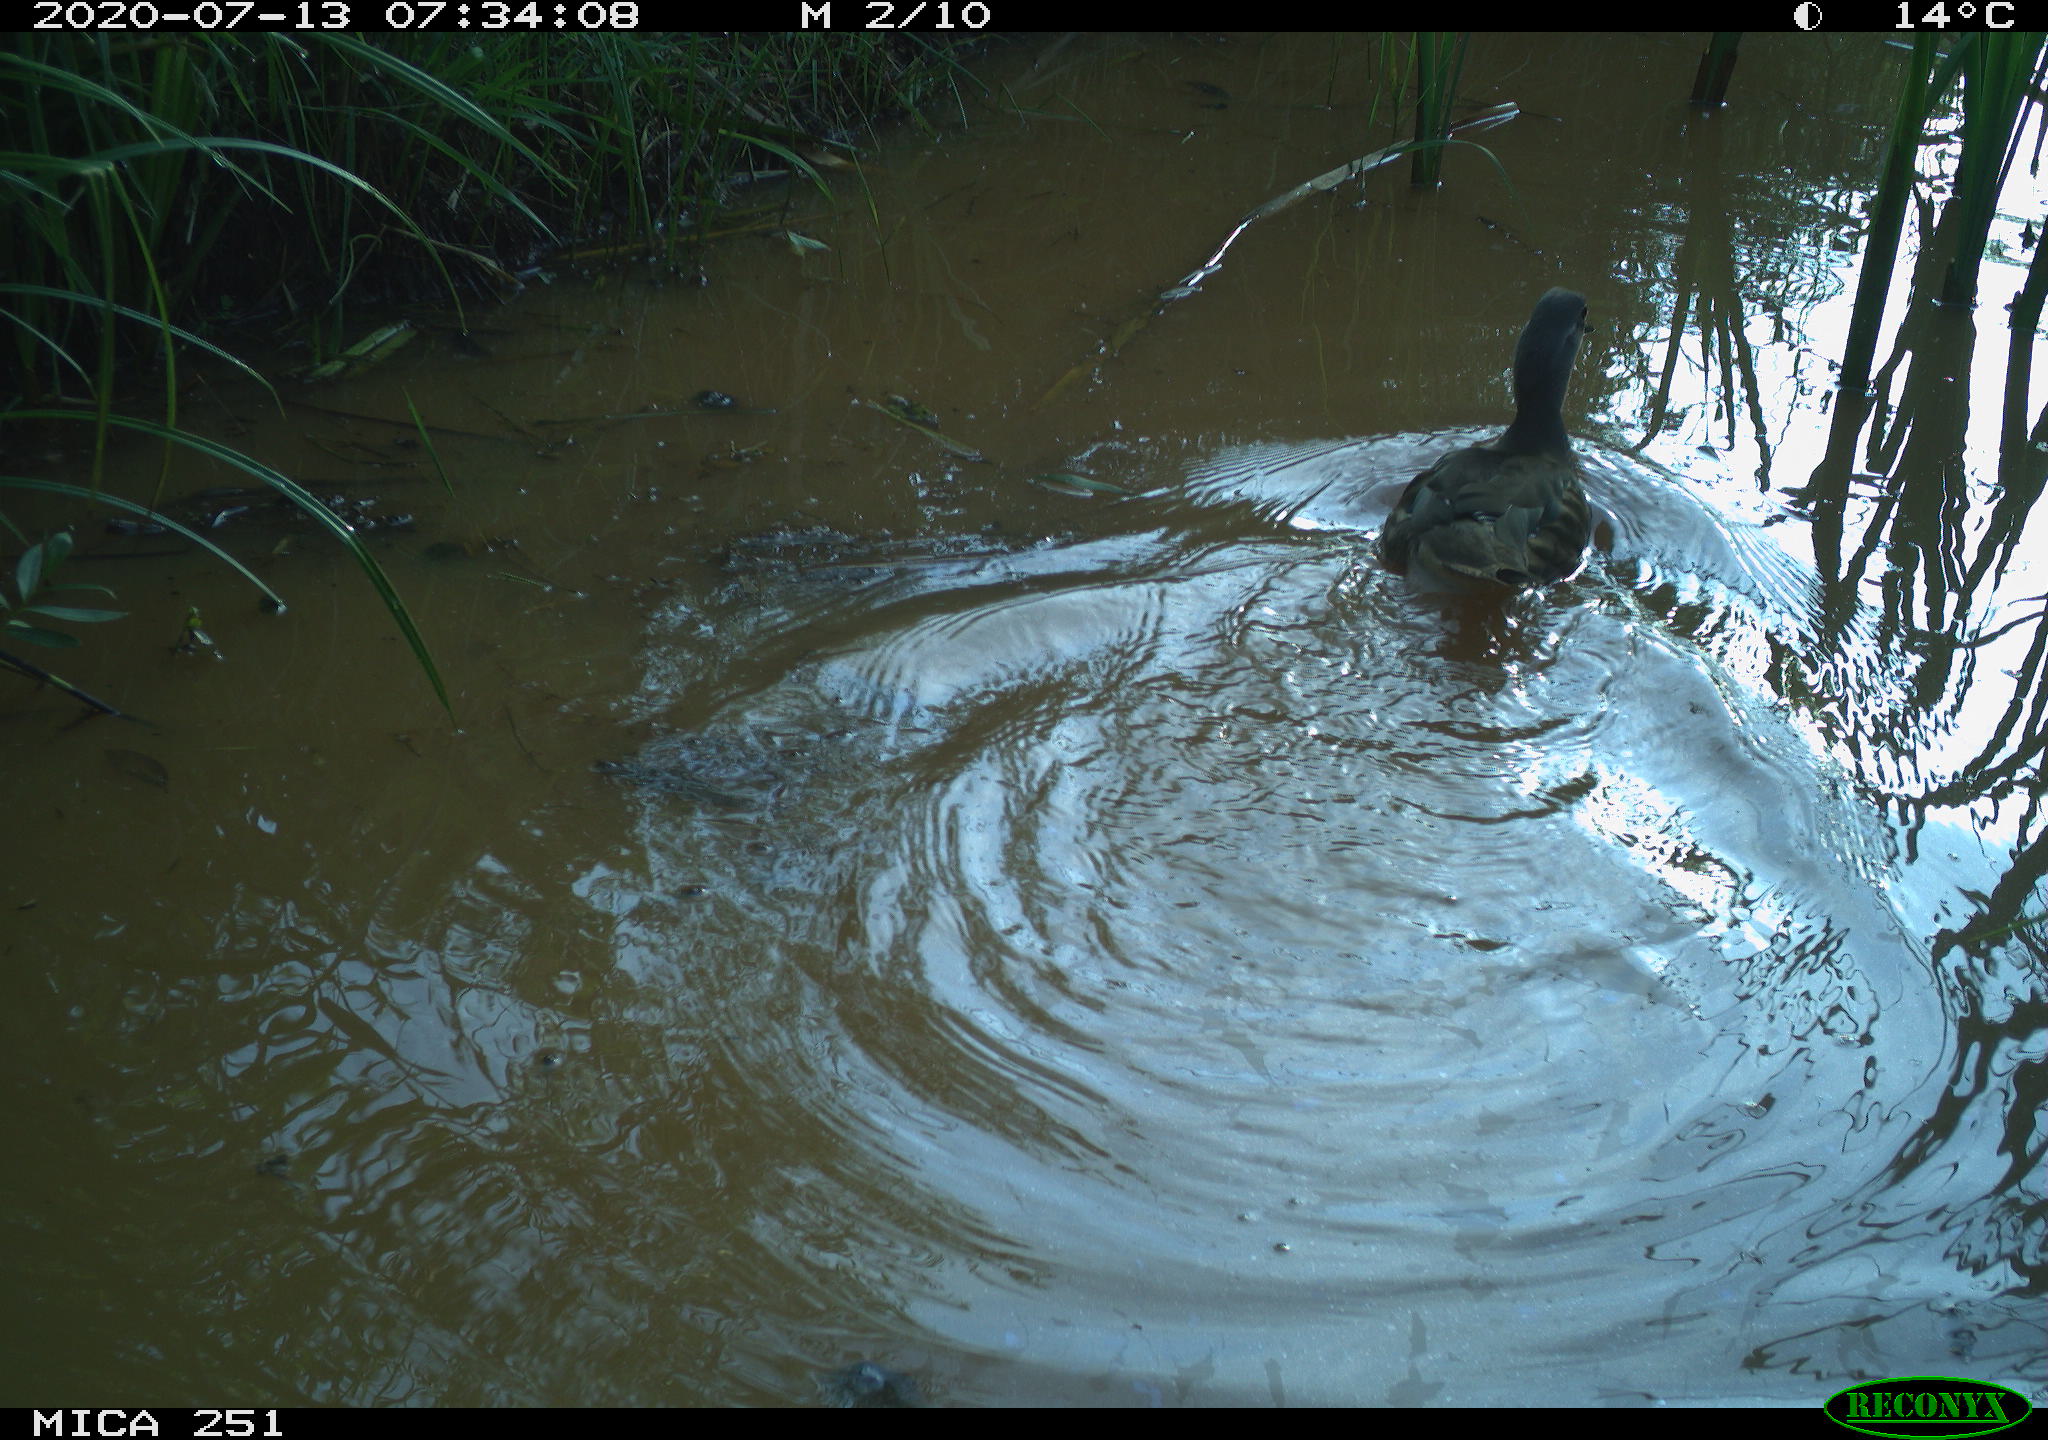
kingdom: Animalia
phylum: Chordata
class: Aves
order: Anseriformes
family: Anatidae
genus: Aix
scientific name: Aix galericulata
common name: Mandarin duck
